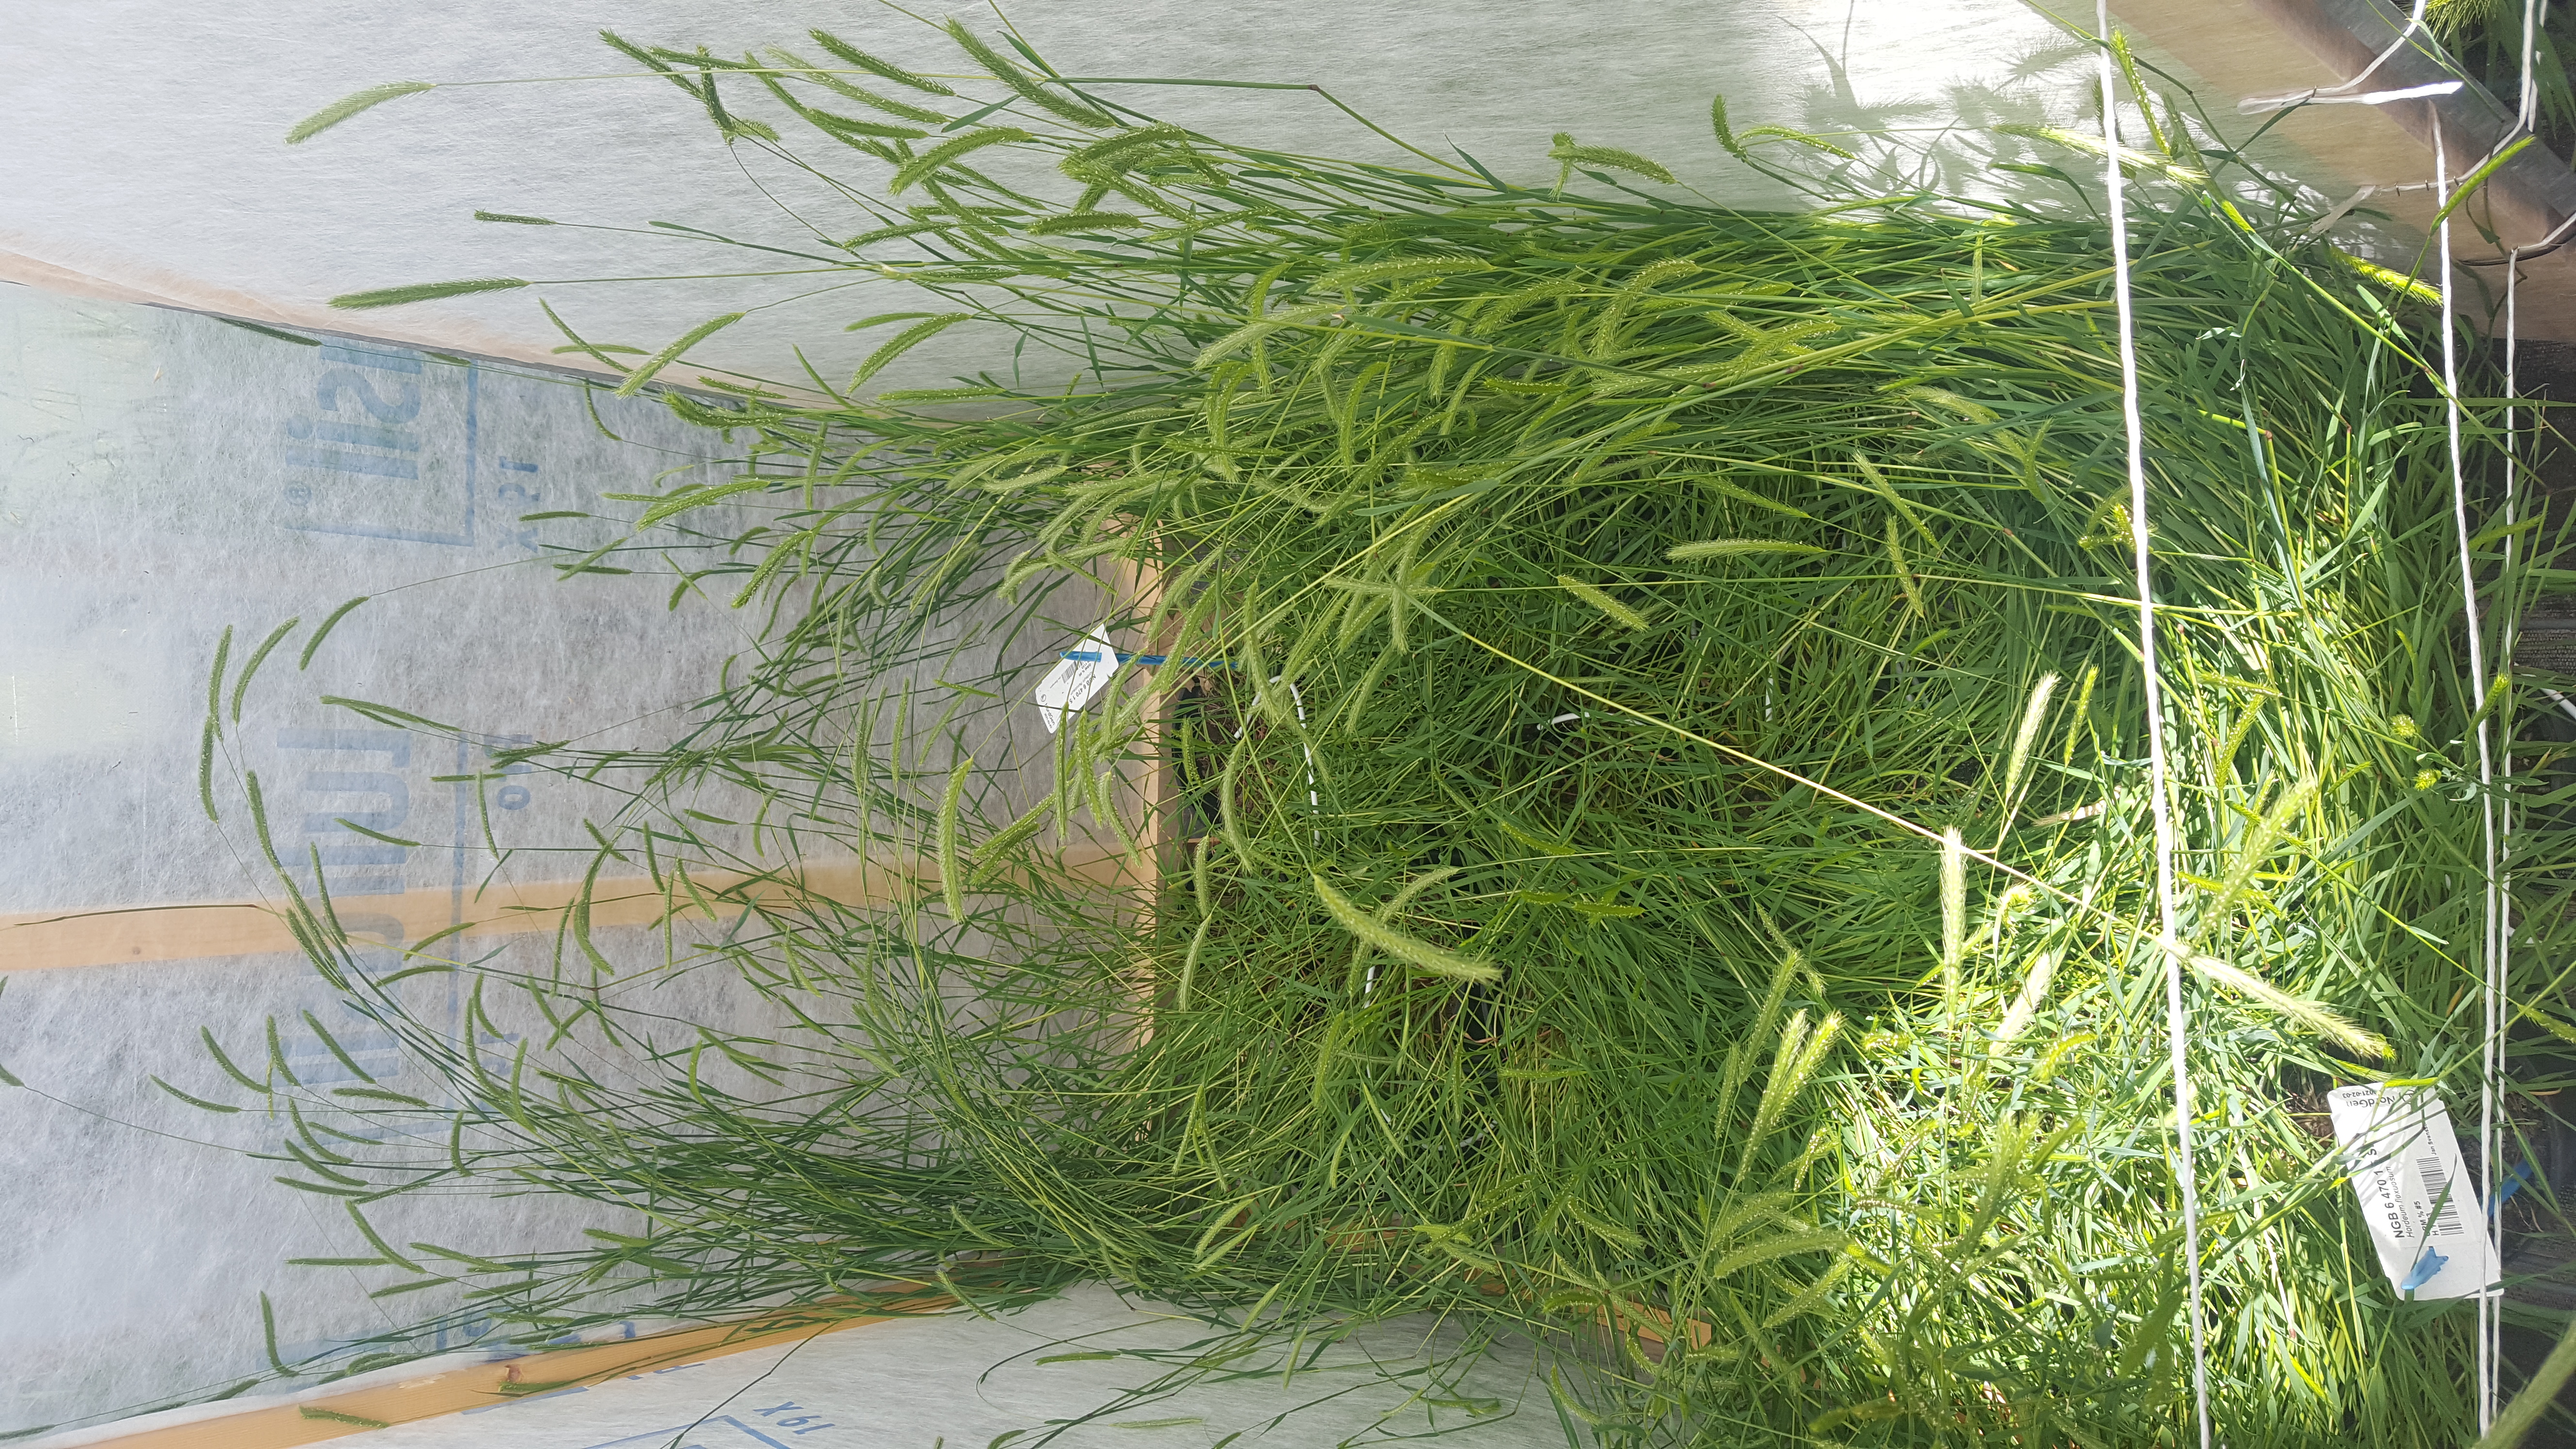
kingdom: Plantae
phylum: Tracheophyta
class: Liliopsida
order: Poales
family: Poaceae
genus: Hordeum
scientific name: Hordeum flexuosum
